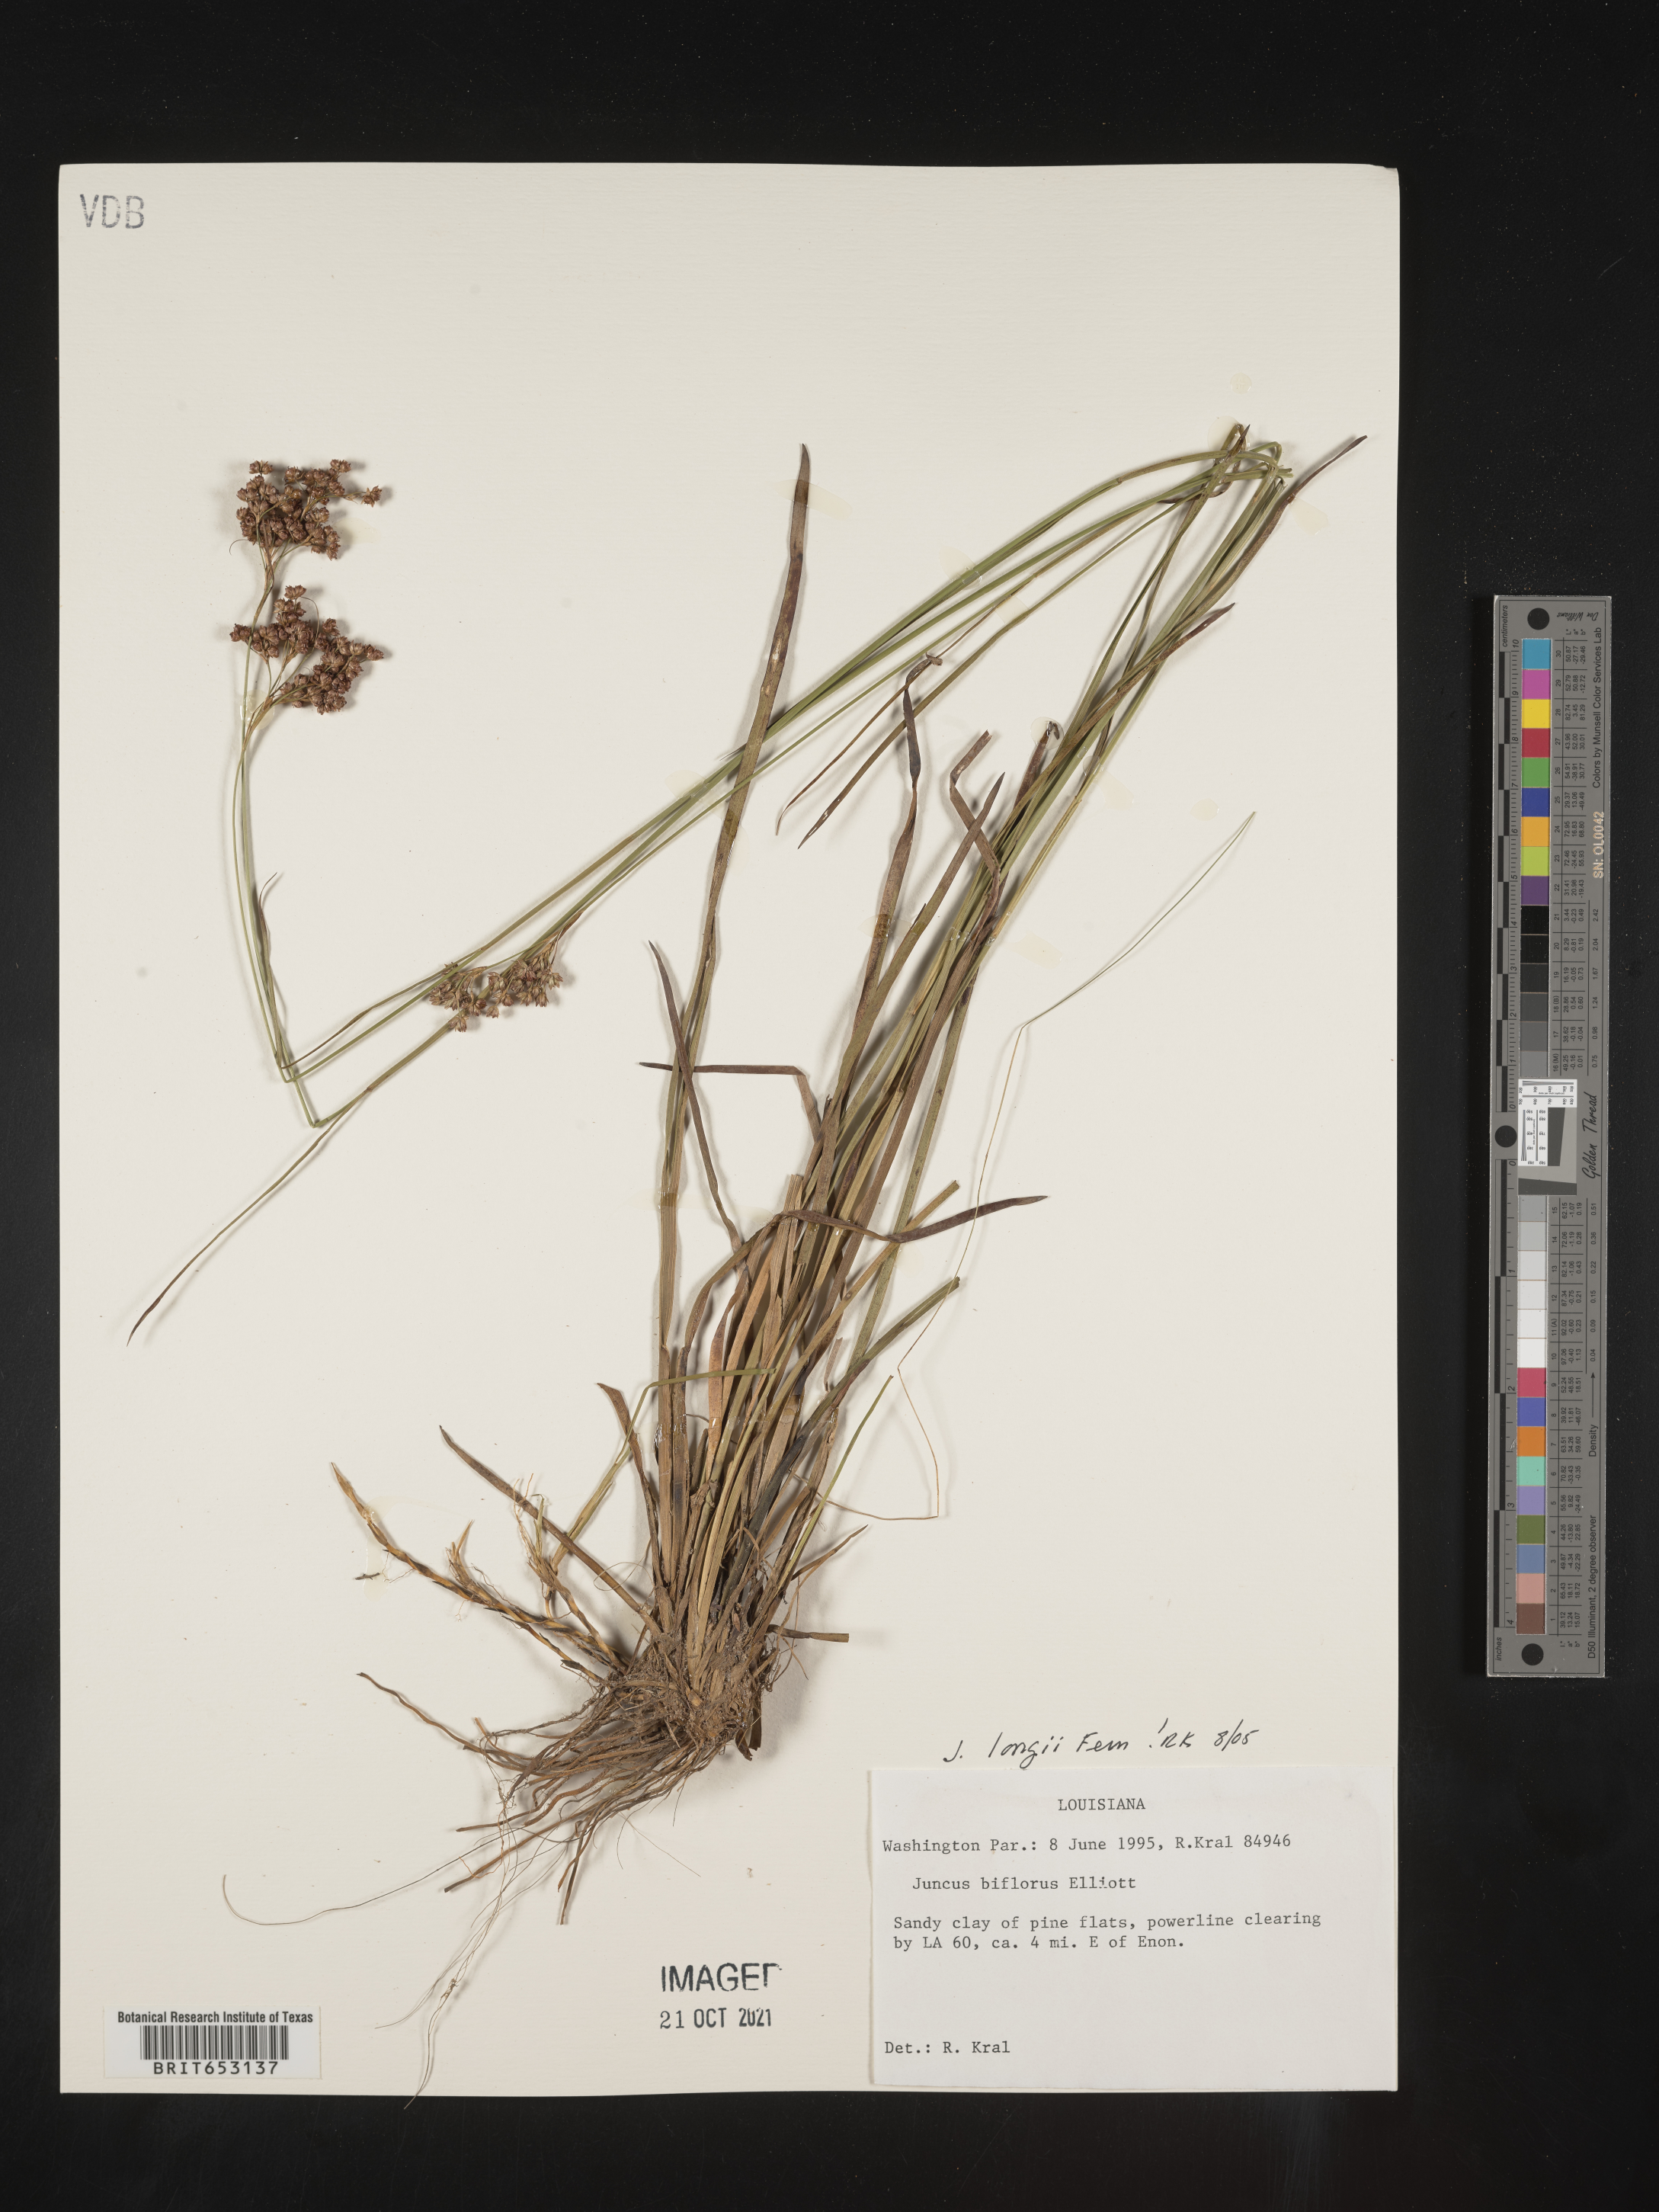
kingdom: Plantae
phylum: Tracheophyta
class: Liliopsida
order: Poales
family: Juncaceae
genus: Juncus
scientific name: Juncus longii
